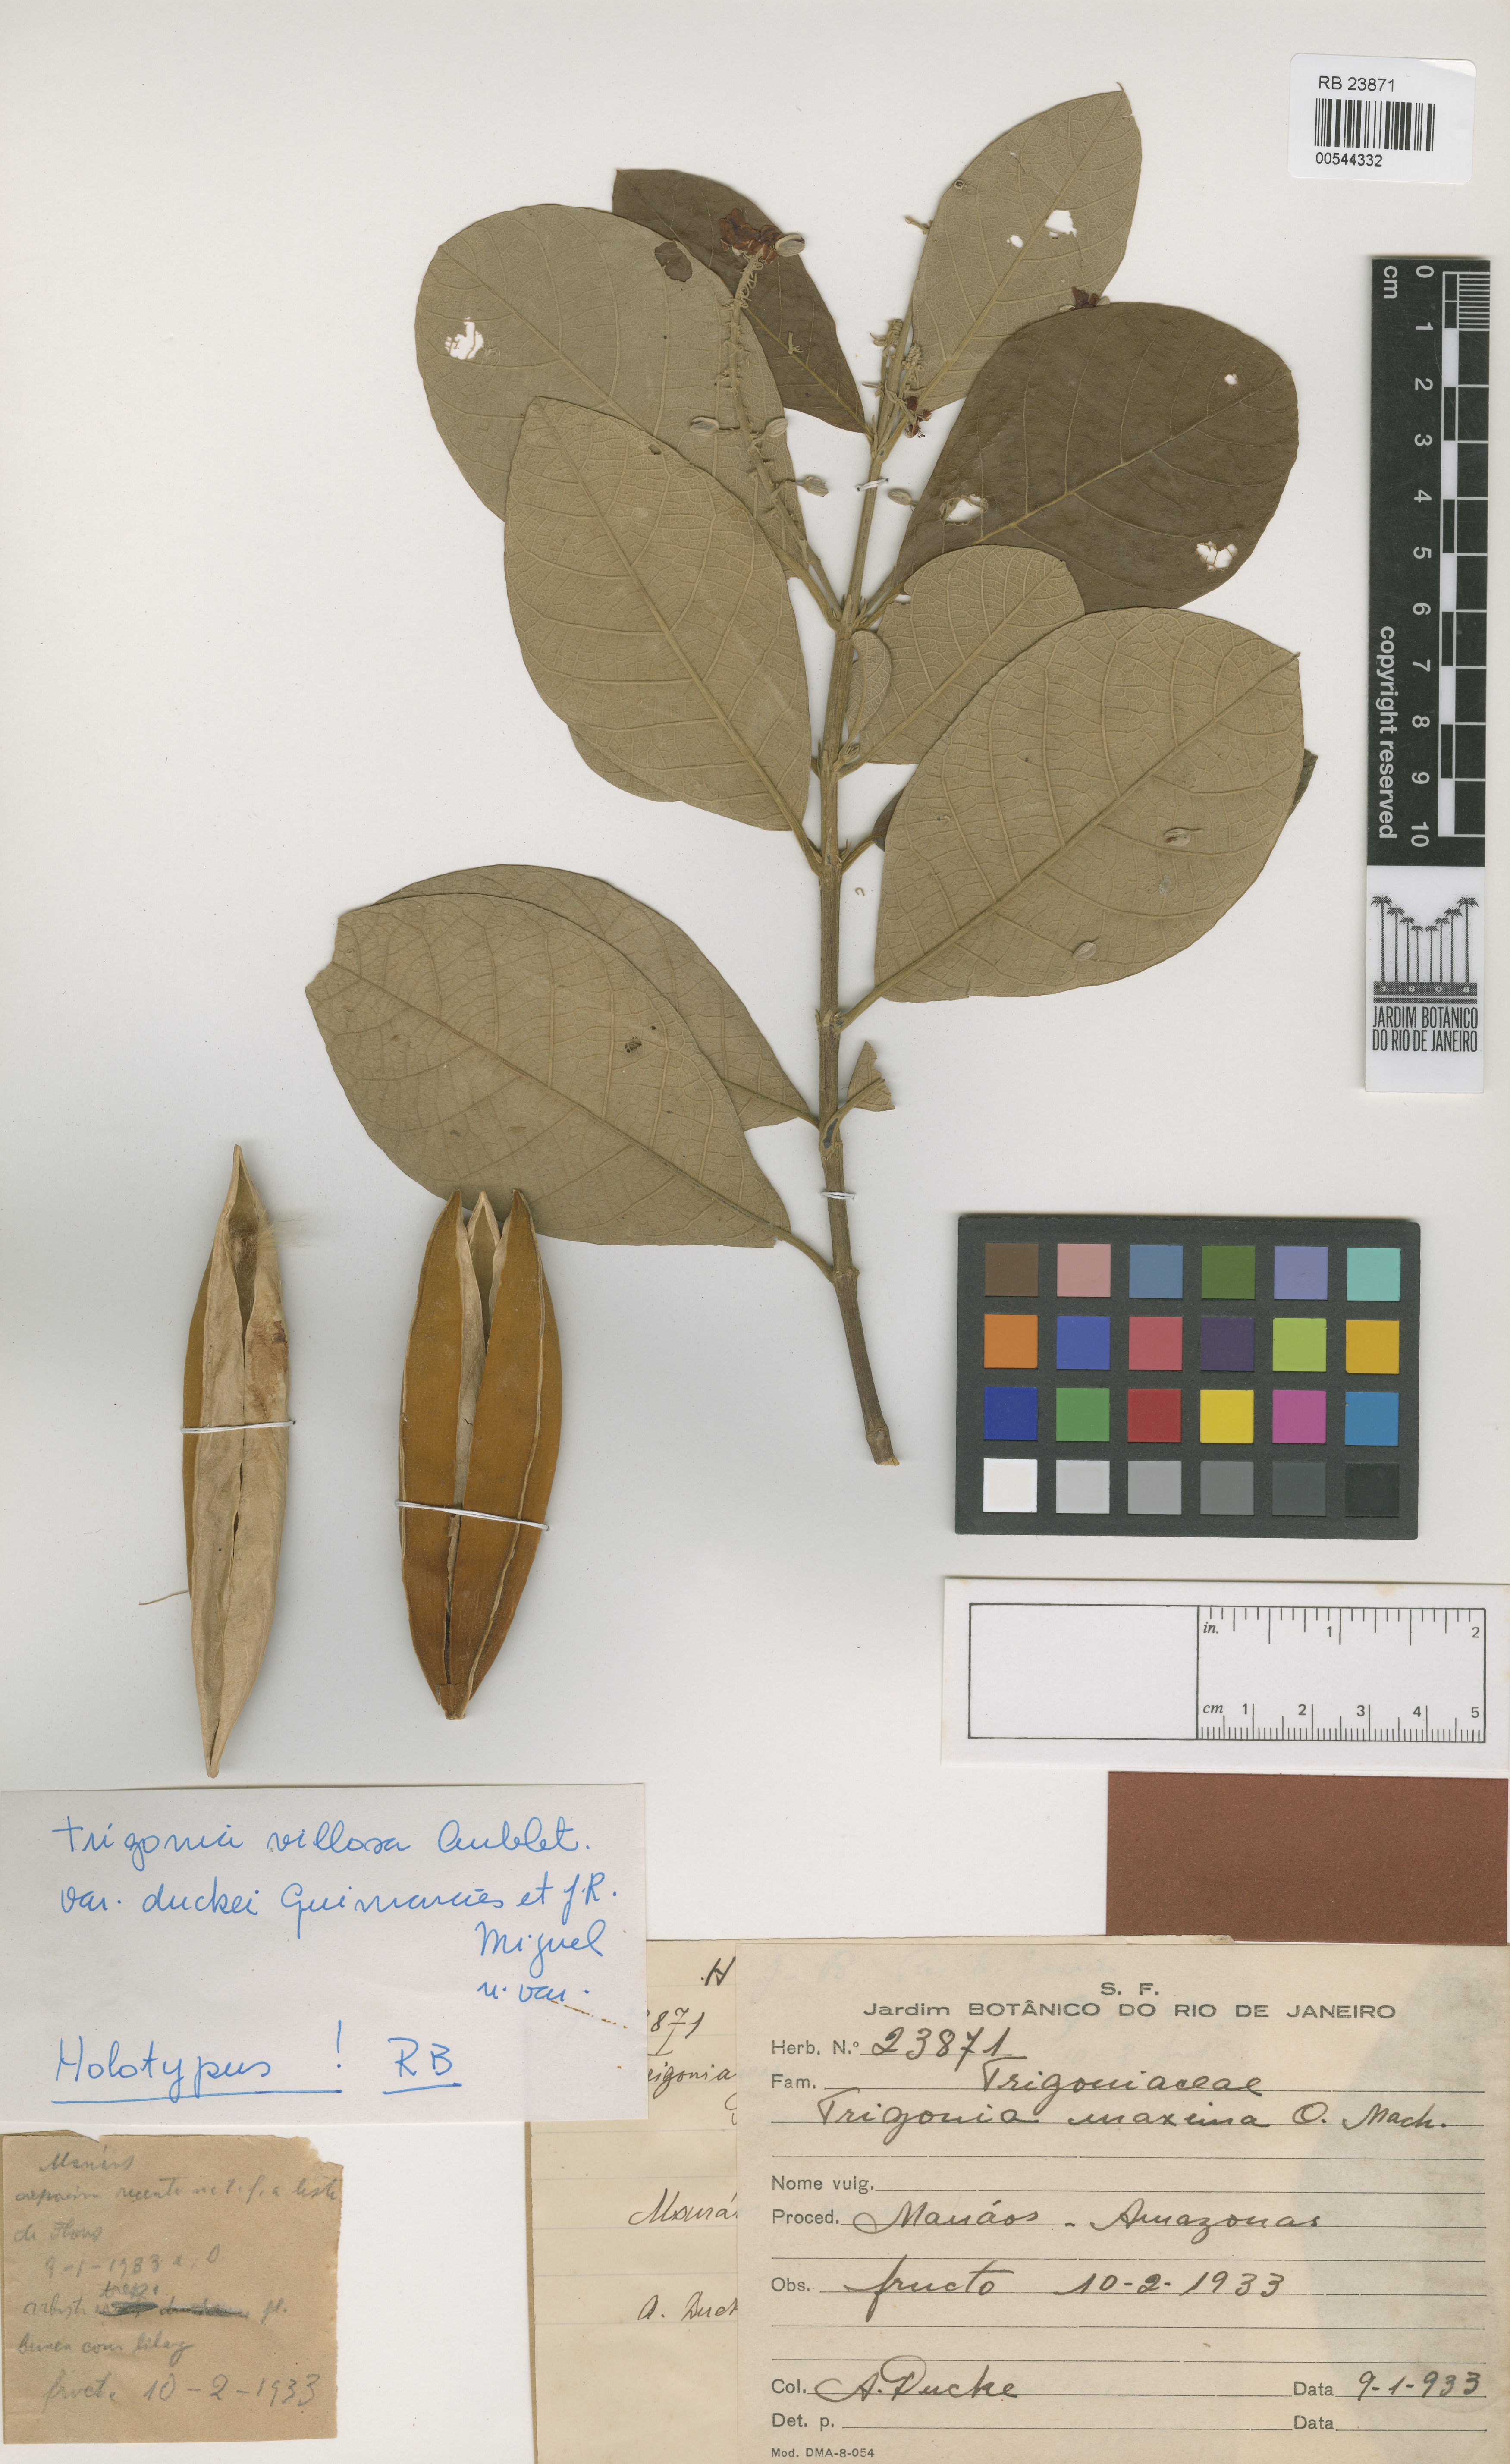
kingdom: Plantae
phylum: Tracheophyta
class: Magnoliopsida
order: Malpighiales
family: Trigoniaceae
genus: Trigonia
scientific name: Trigonia villosa
